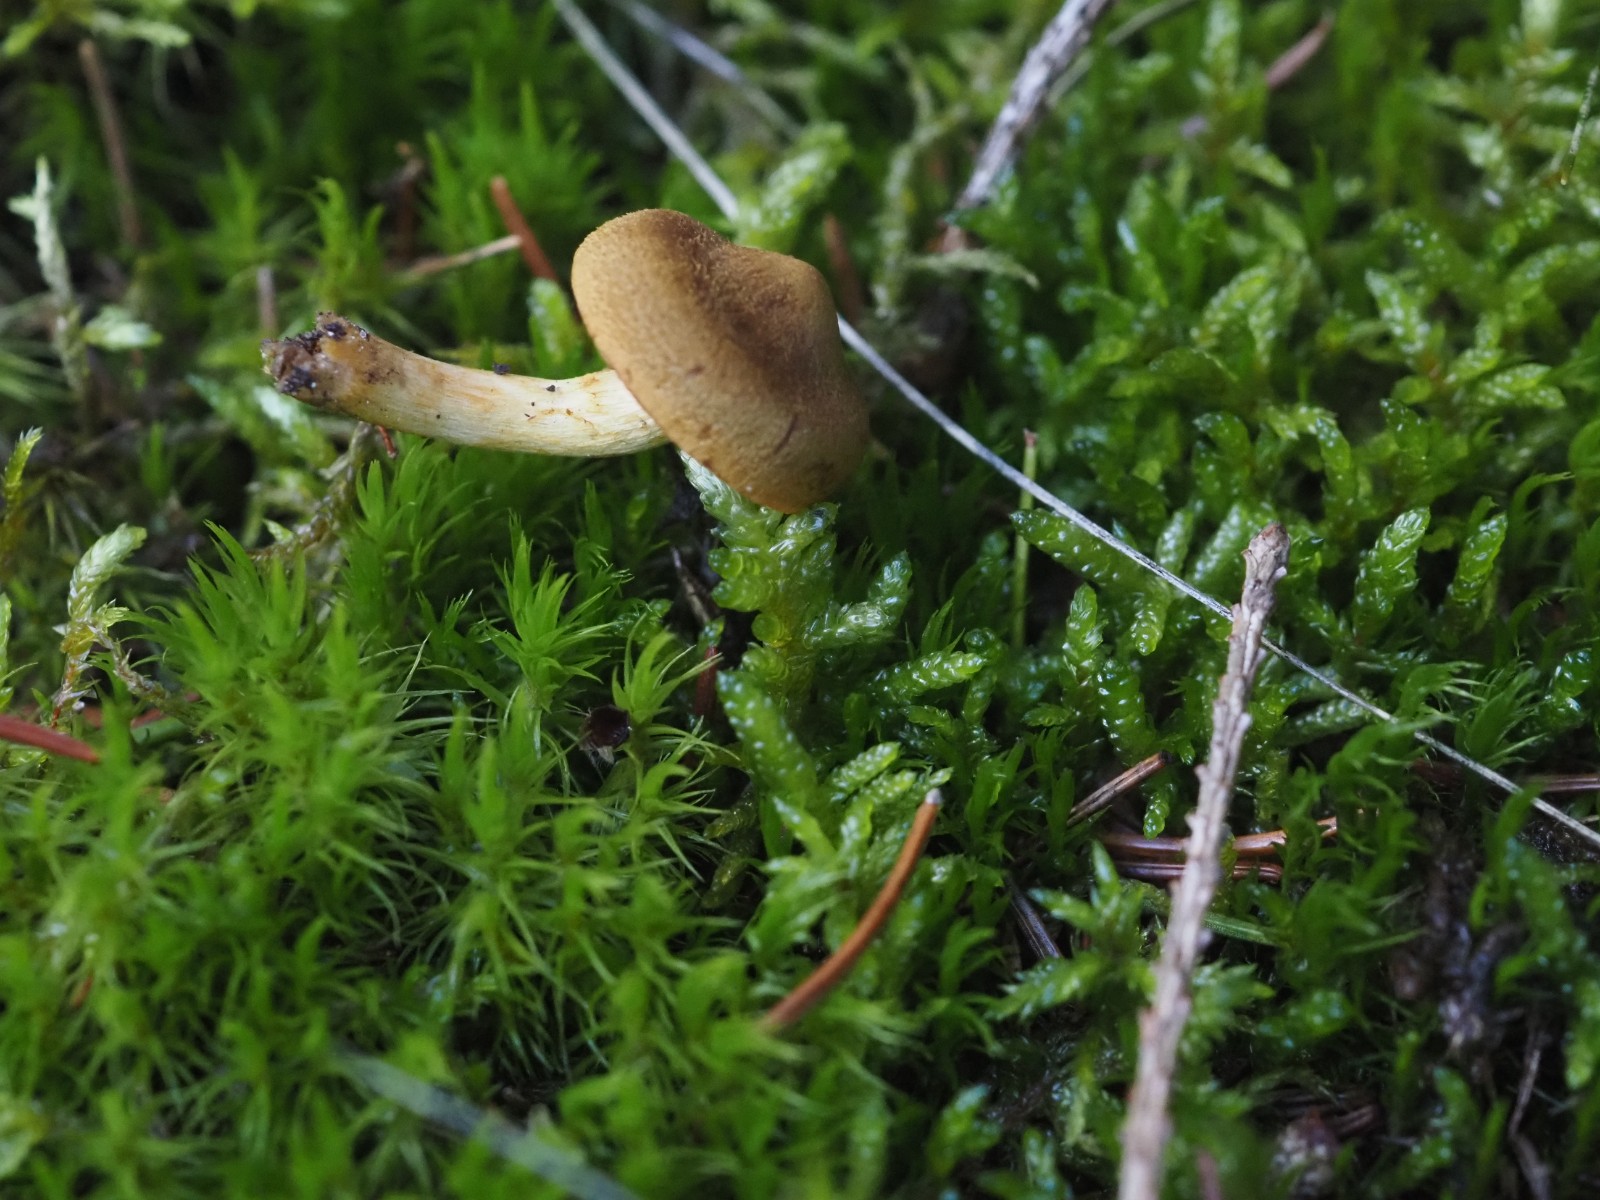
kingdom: Fungi
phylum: Basidiomycota
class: Agaricomycetes
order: Agaricales
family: Cortinariaceae
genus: Cortinarius
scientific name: Cortinarius
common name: cinnoberbladet slørhat
